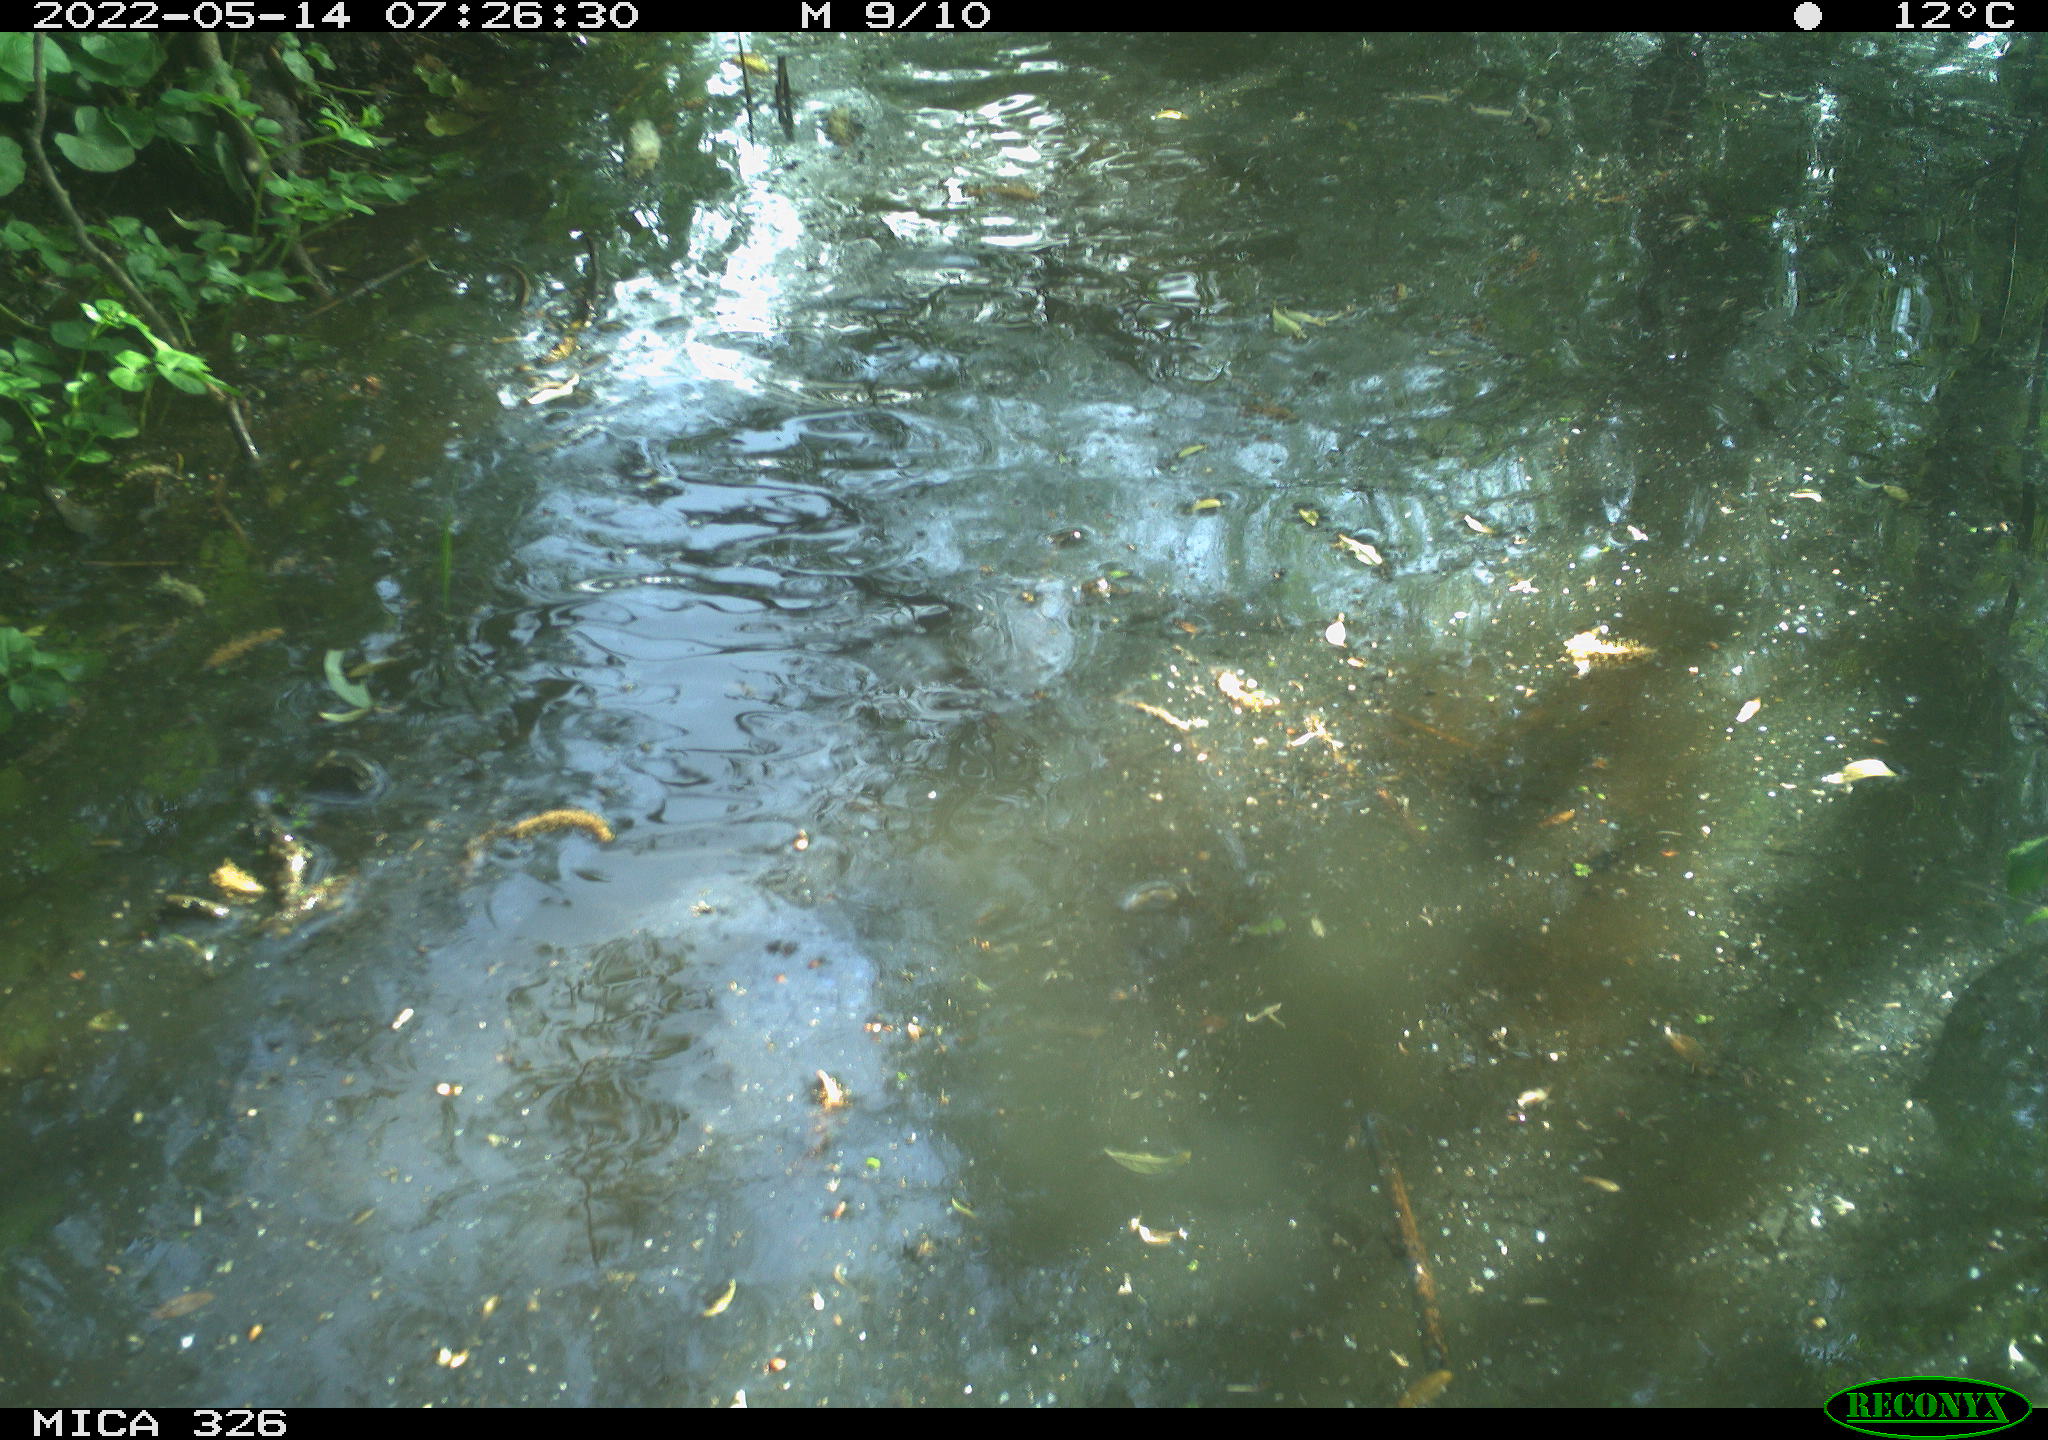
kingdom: Animalia
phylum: Chordata
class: Aves
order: Anseriformes
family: Anatidae
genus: Anas
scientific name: Anas platyrhynchos
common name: Mallard
